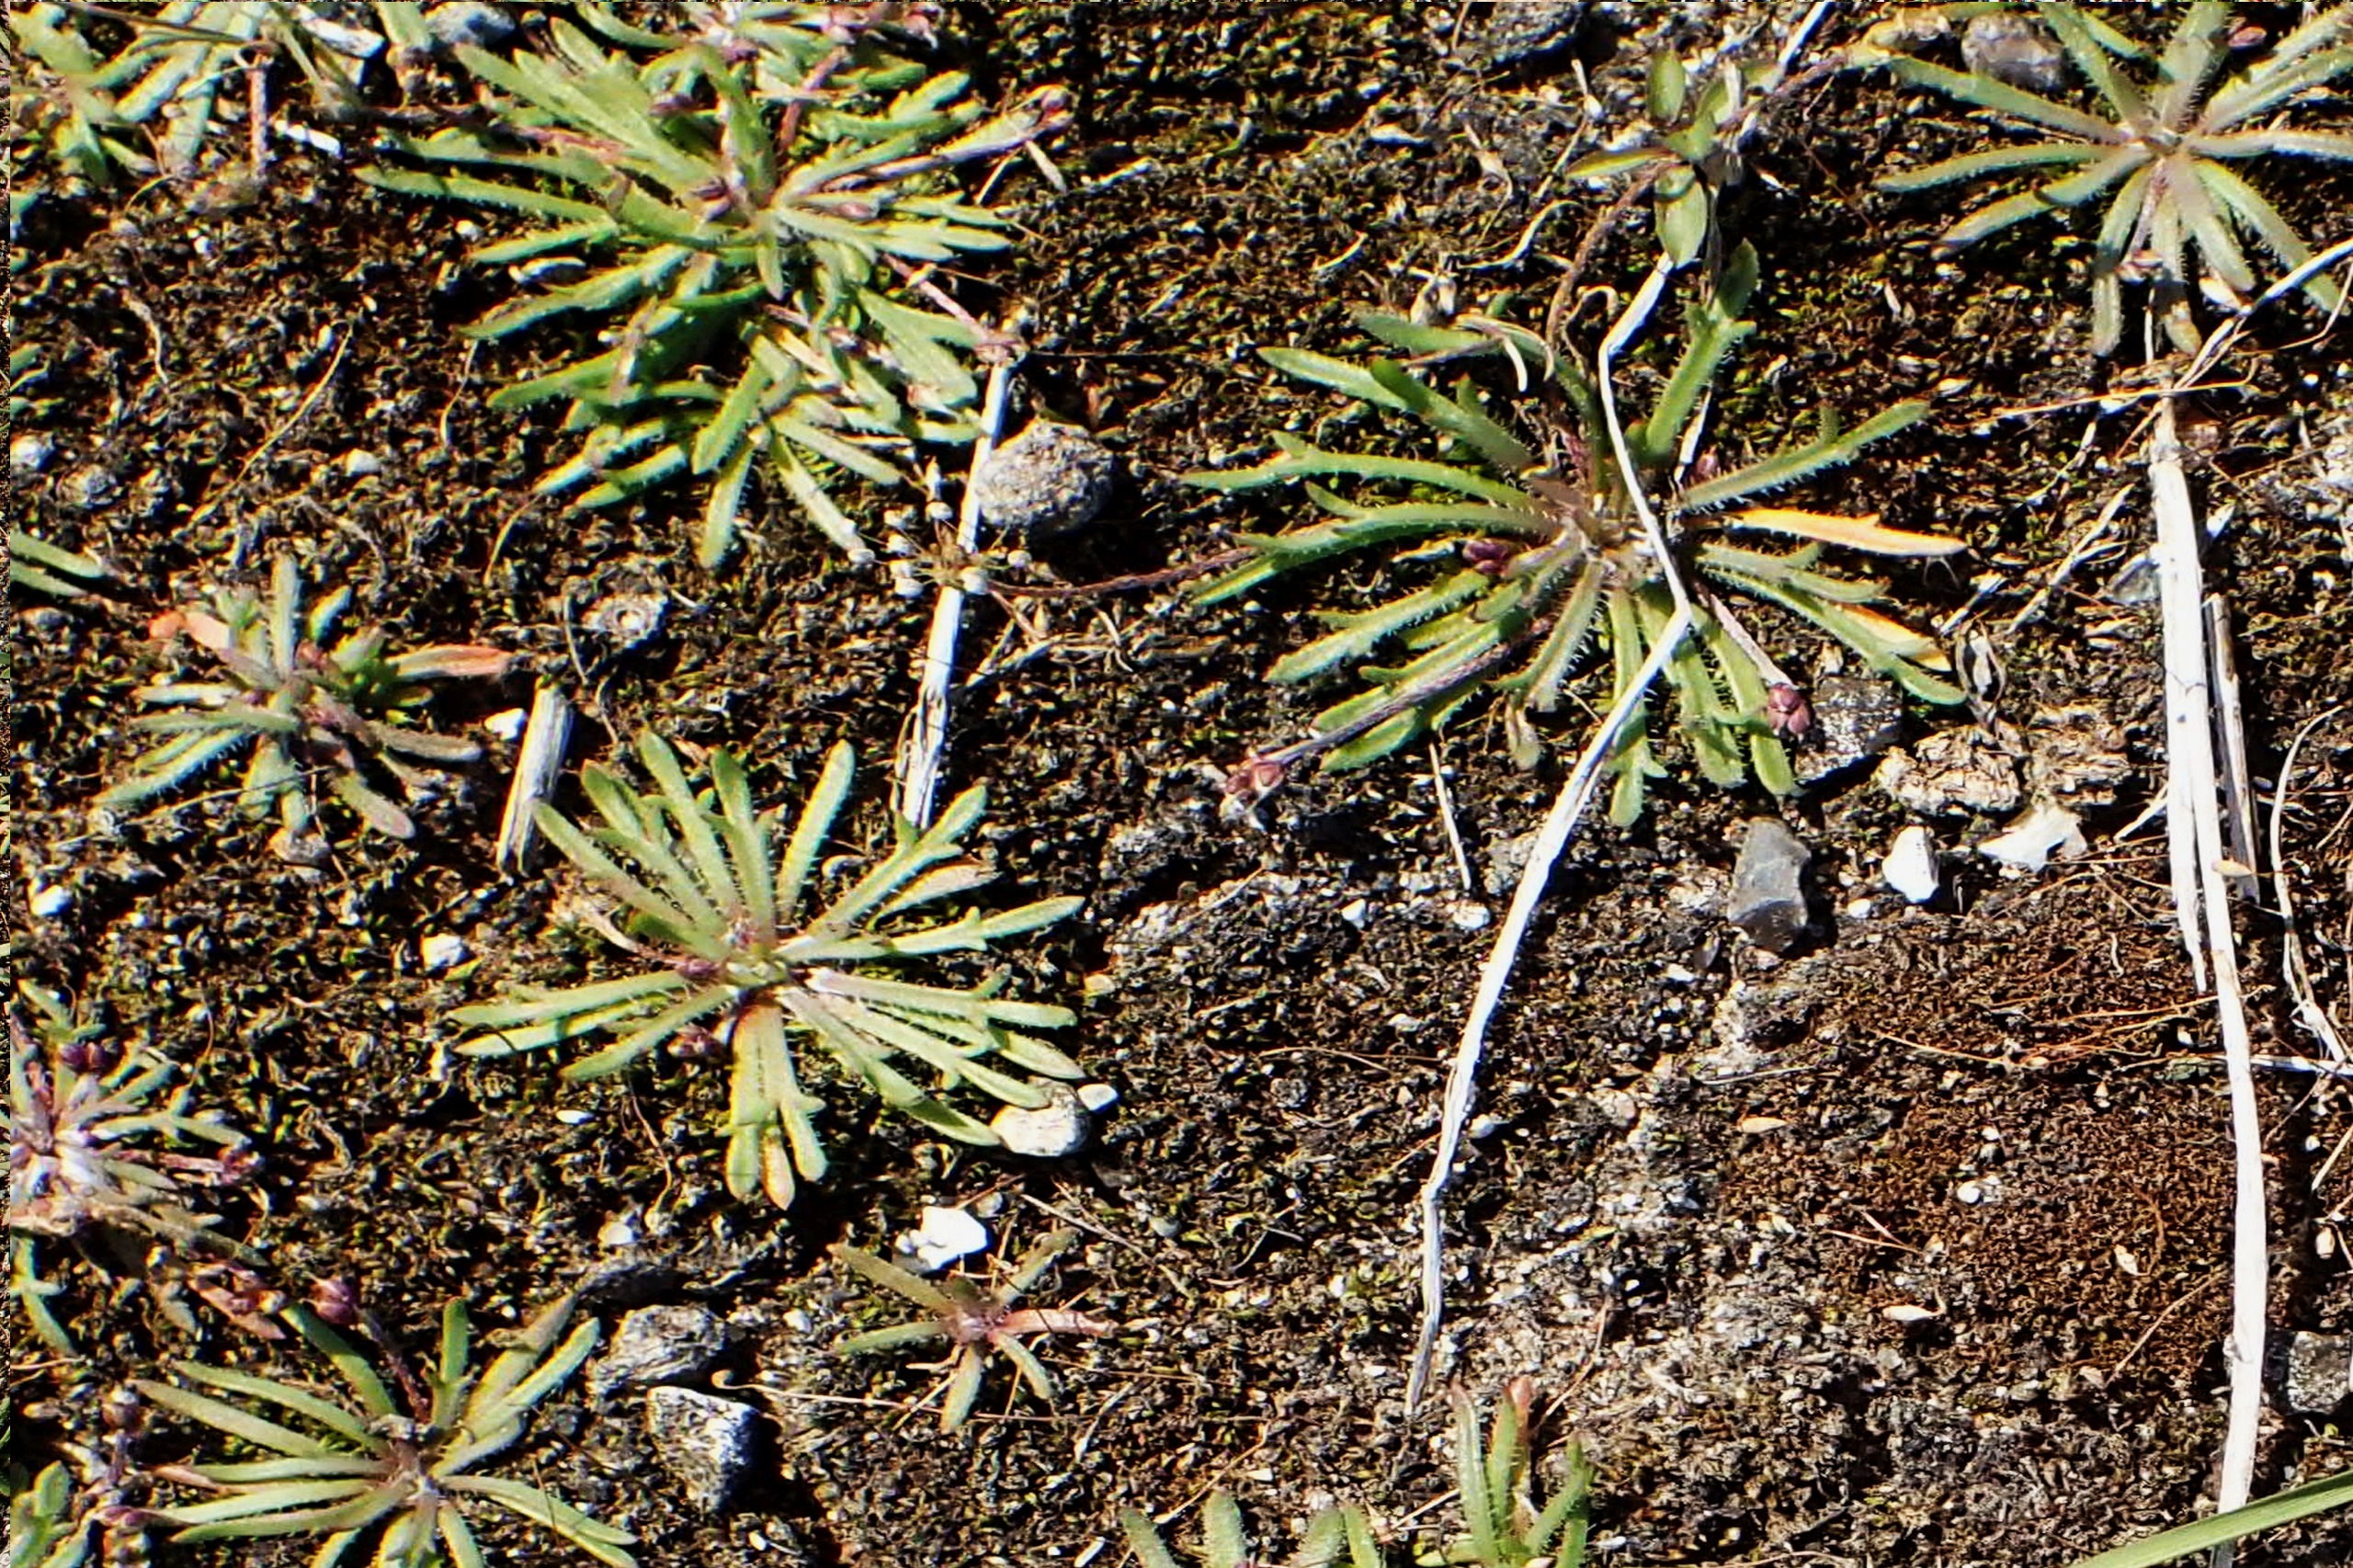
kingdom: Plantae
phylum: Tracheophyta
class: Magnoliopsida
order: Lamiales
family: Plantaginaceae
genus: Plantago
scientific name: Plantago coronopus
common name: Fliget vejbred
